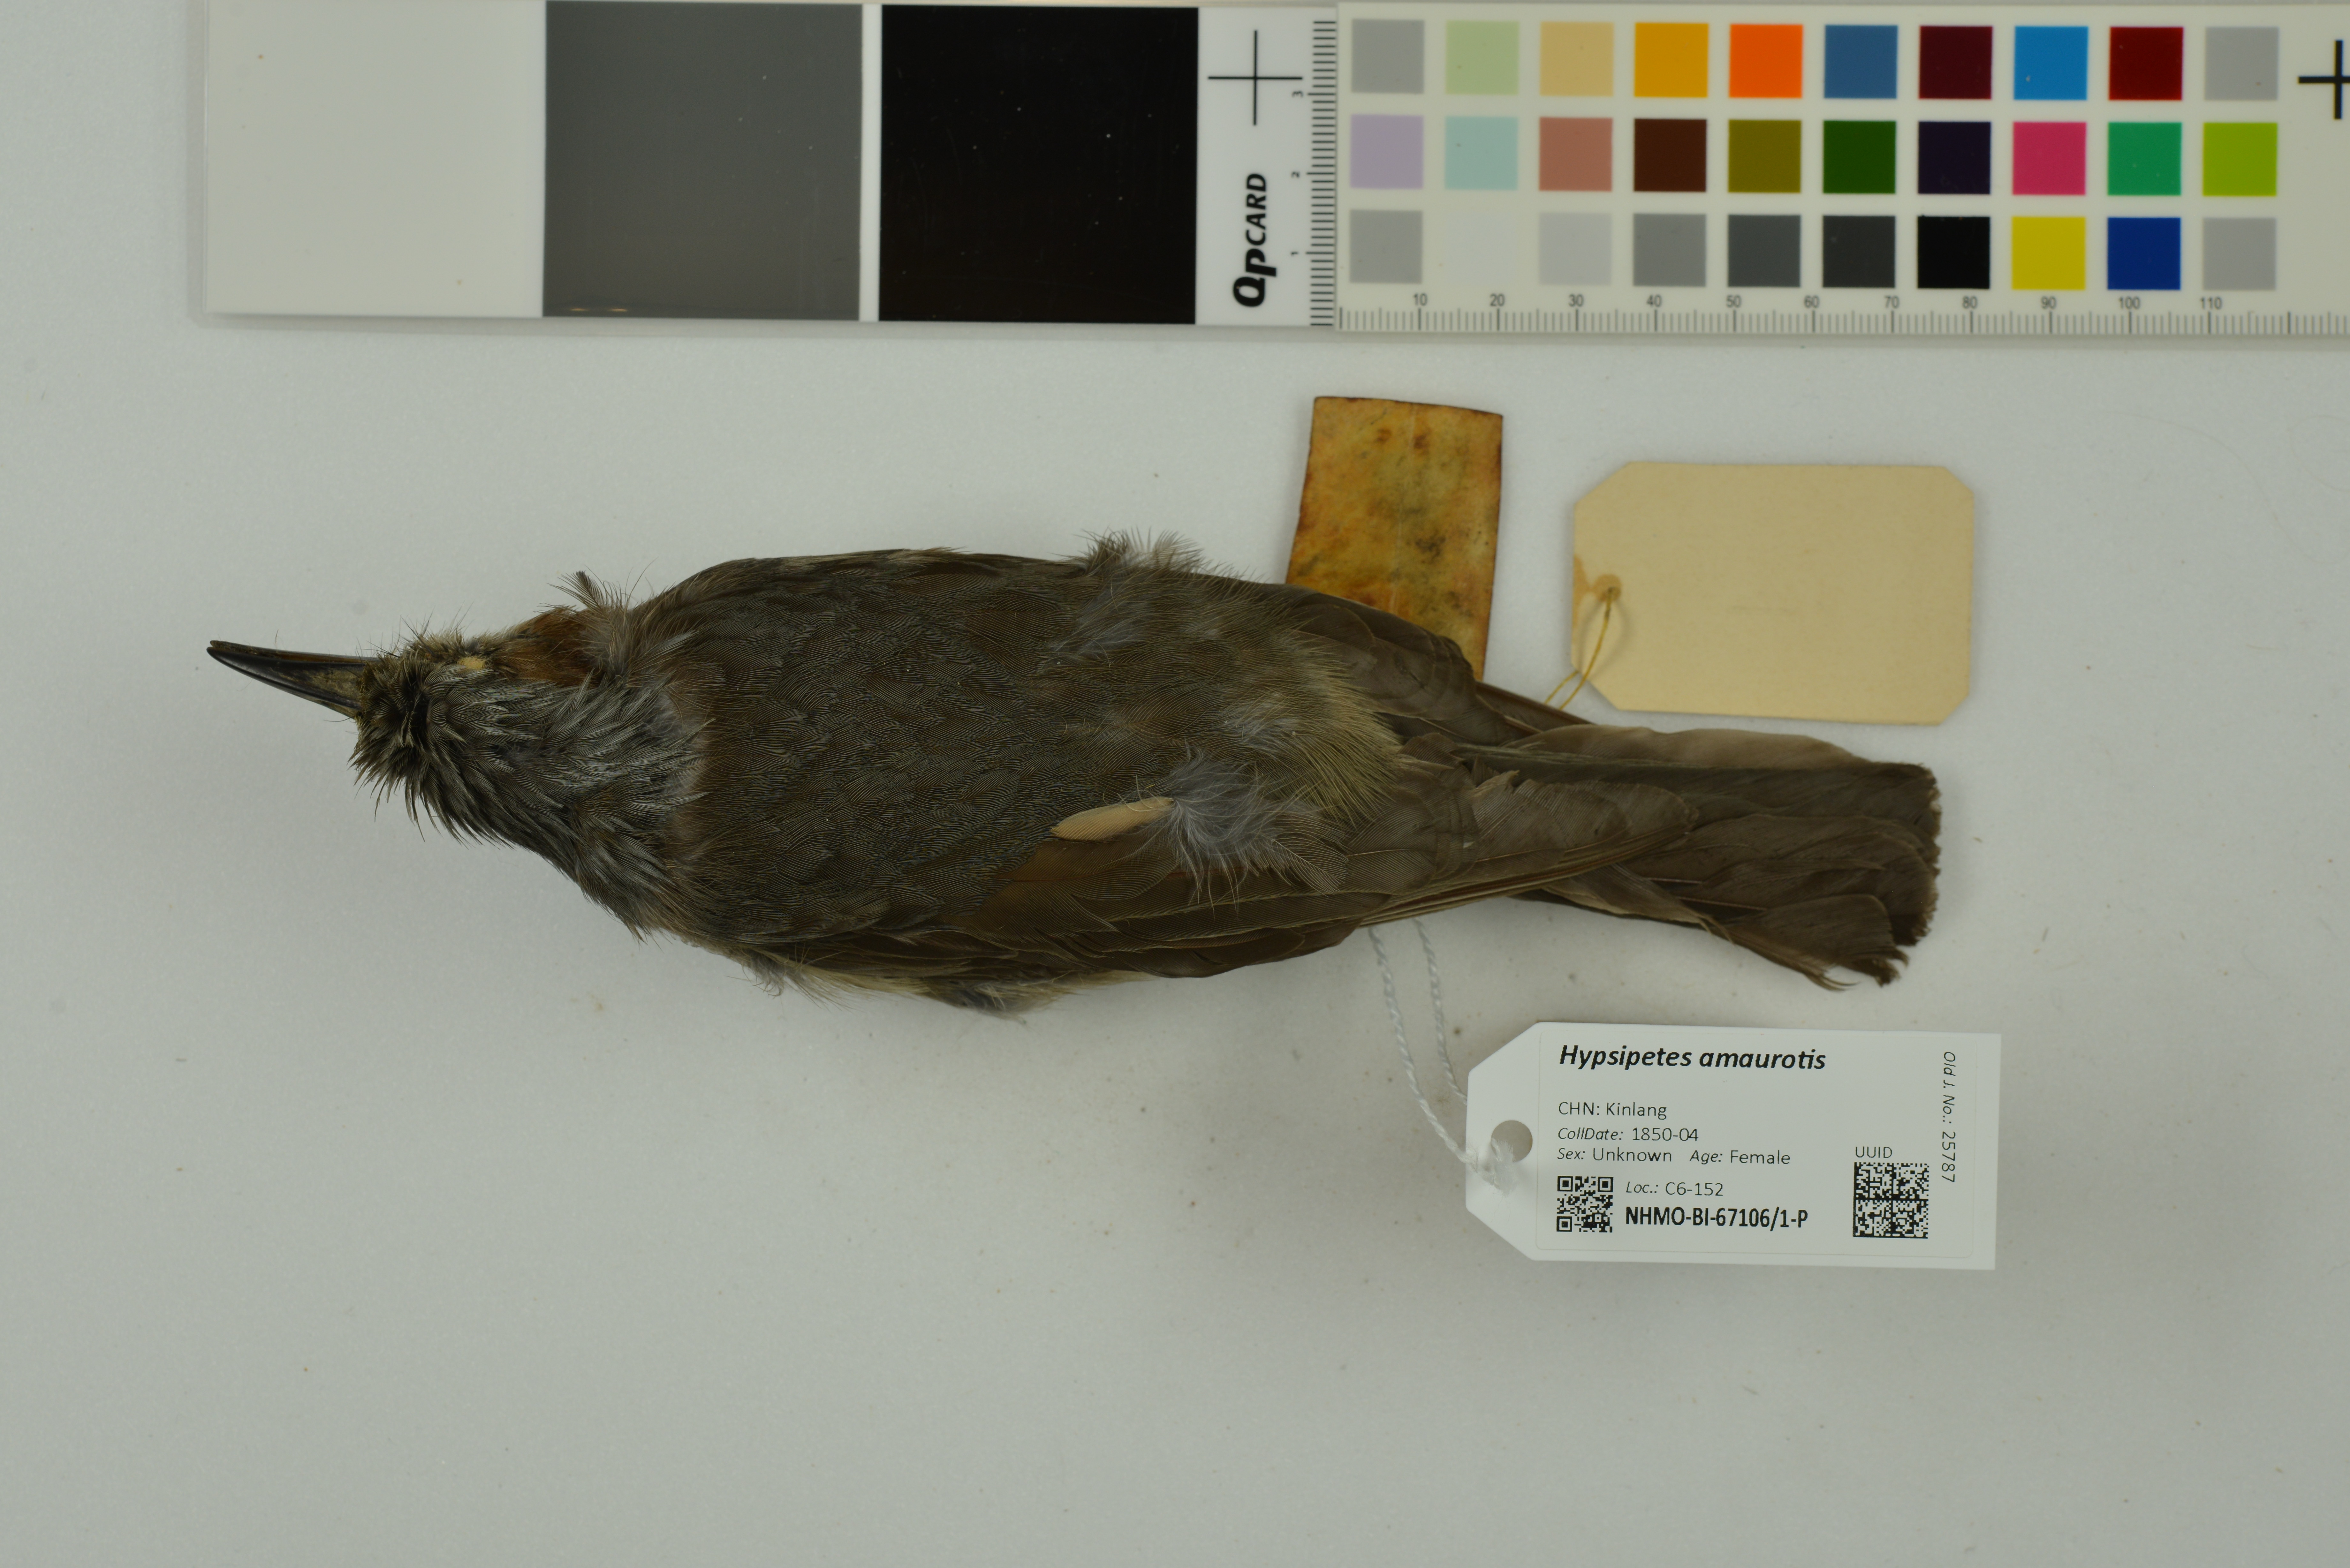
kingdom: Animalia
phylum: Chordata
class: Aves
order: Passeriformes
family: Pycnonotidae
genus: Hypsipetes
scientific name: Hypsipetes amaurotis
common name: Brown-eared bulbul
